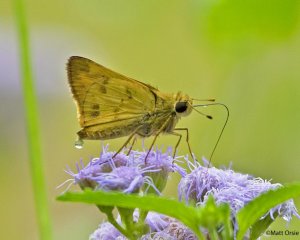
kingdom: Animalia
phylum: Arthropoda
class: Insecta
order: Lepidoptera
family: Hesperiidae
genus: Polites
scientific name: Polites vibex
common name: Whirlabout
